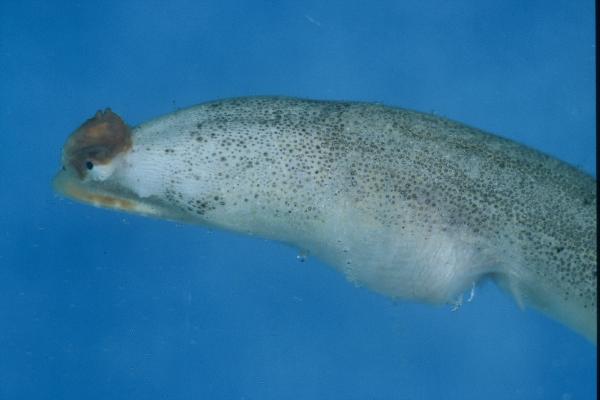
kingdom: Animalia
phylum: Chordata
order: Anguilliformes
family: Ophichthidae
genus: Brachysomophis
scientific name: Brachysomophis crocodilinus
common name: Crocodile snake eel
